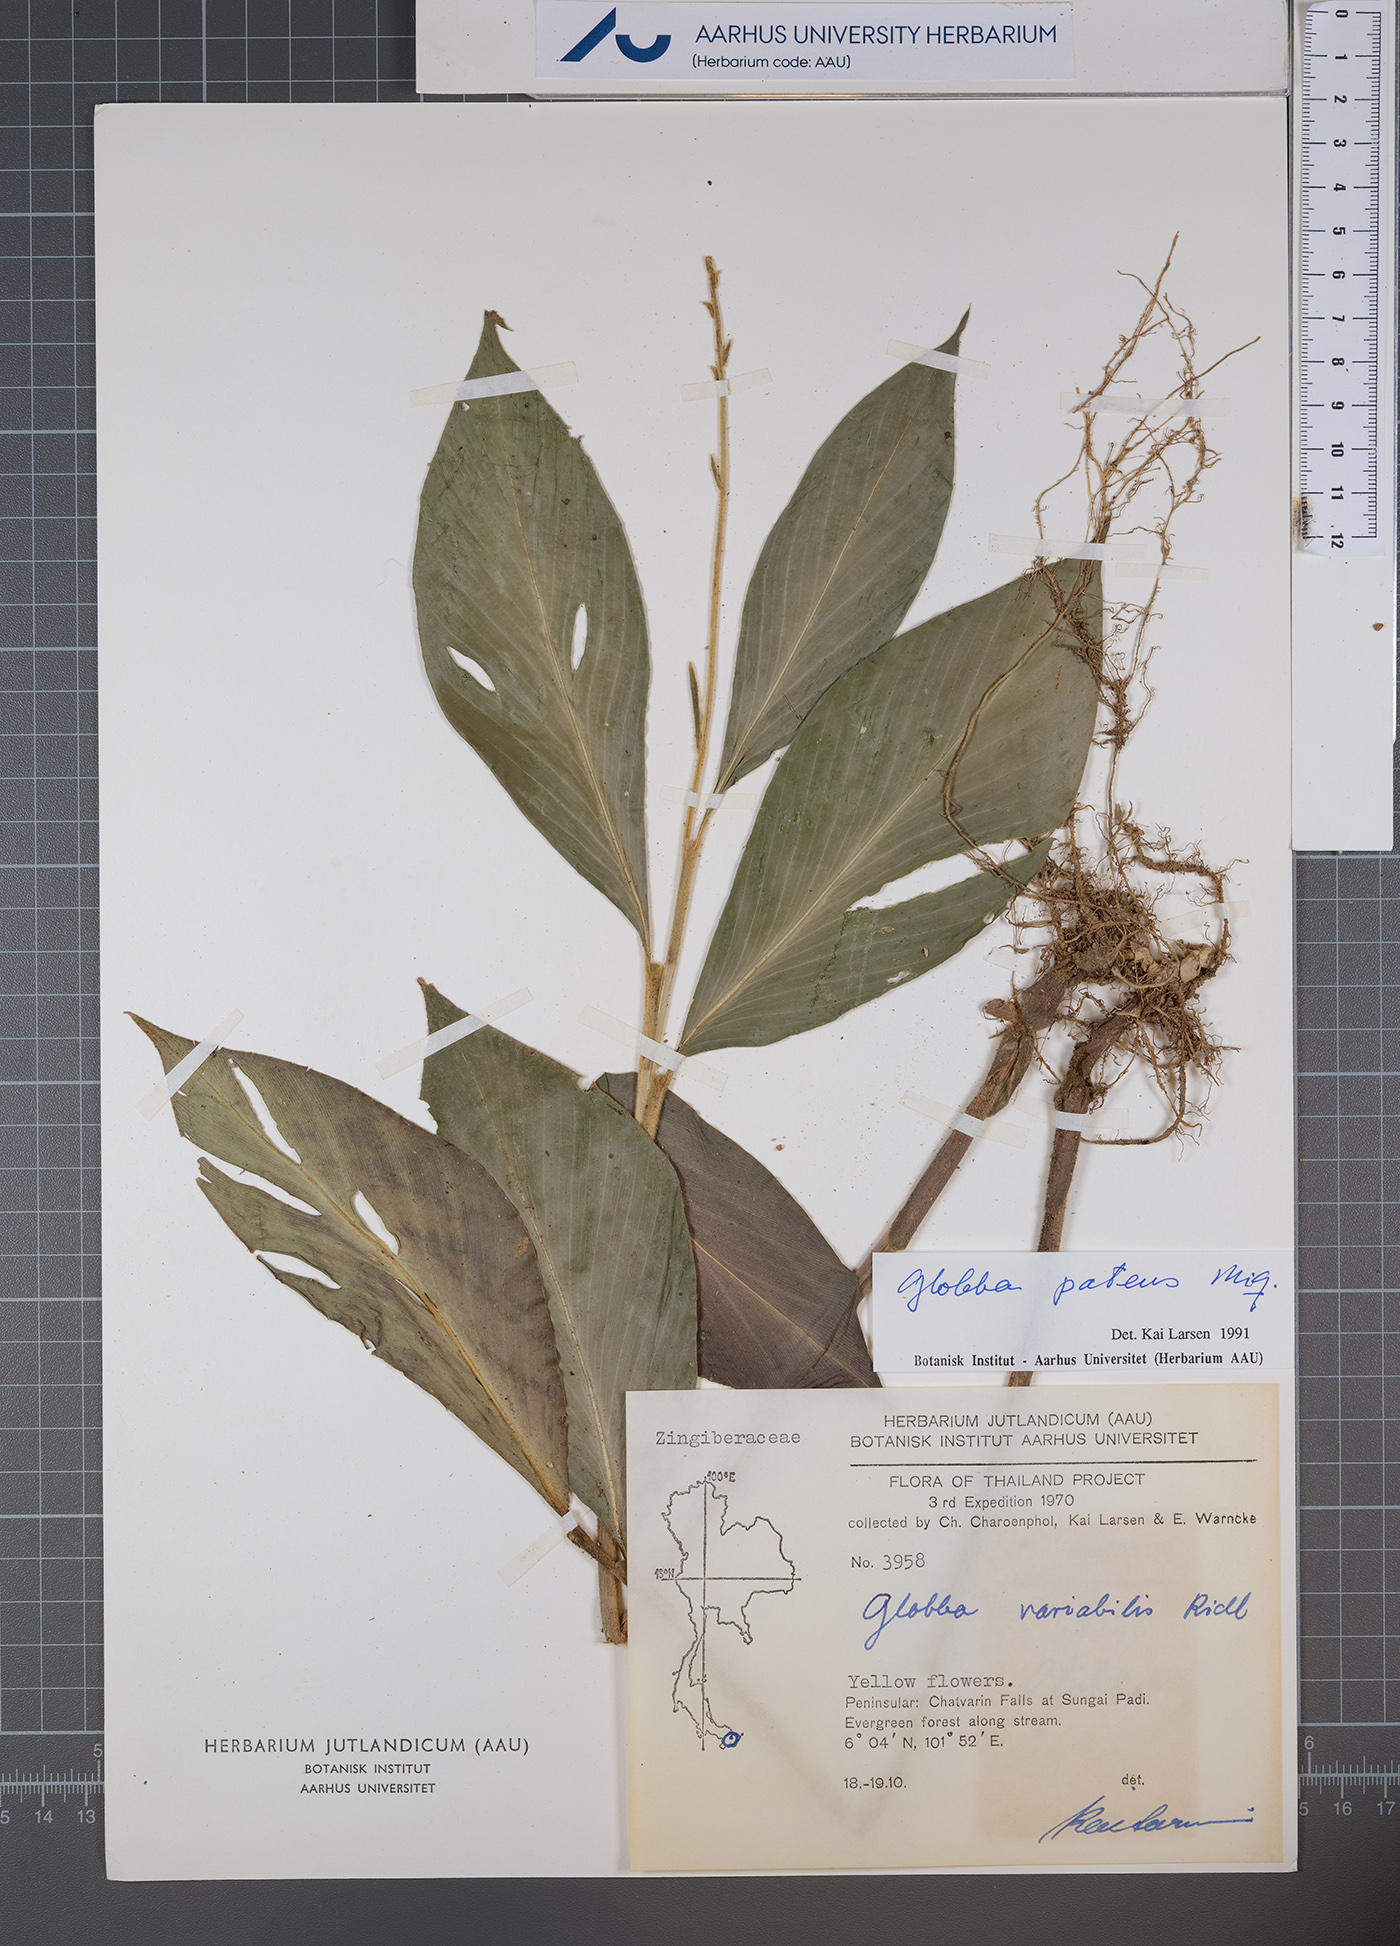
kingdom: Plantae
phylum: Tracheophyta
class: Liliopsida
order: Zingiberales
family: Zingiberaceae
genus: Globba
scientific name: Globba patens
